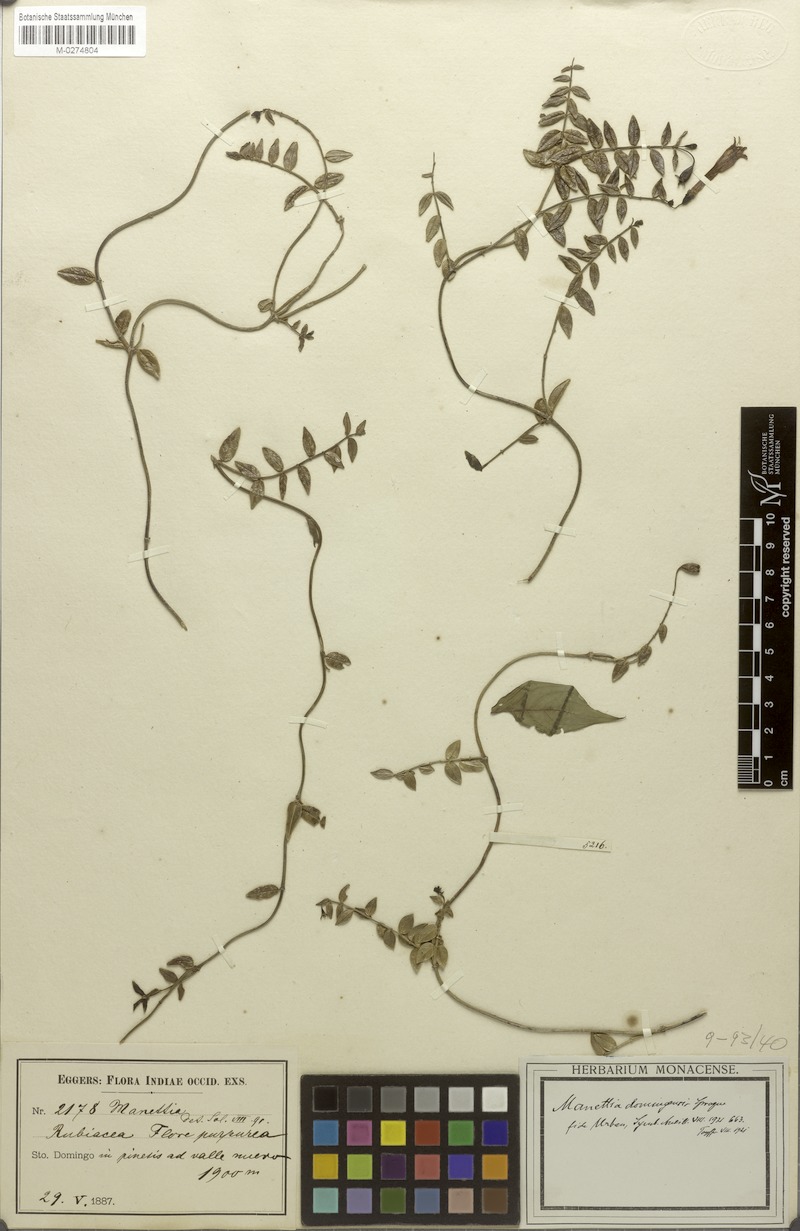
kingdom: Plantae
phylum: Tracheophyta
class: Magnoliopsida
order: Gentianales
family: Rubiaceae
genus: Manettia
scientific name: Manettia domingensis
